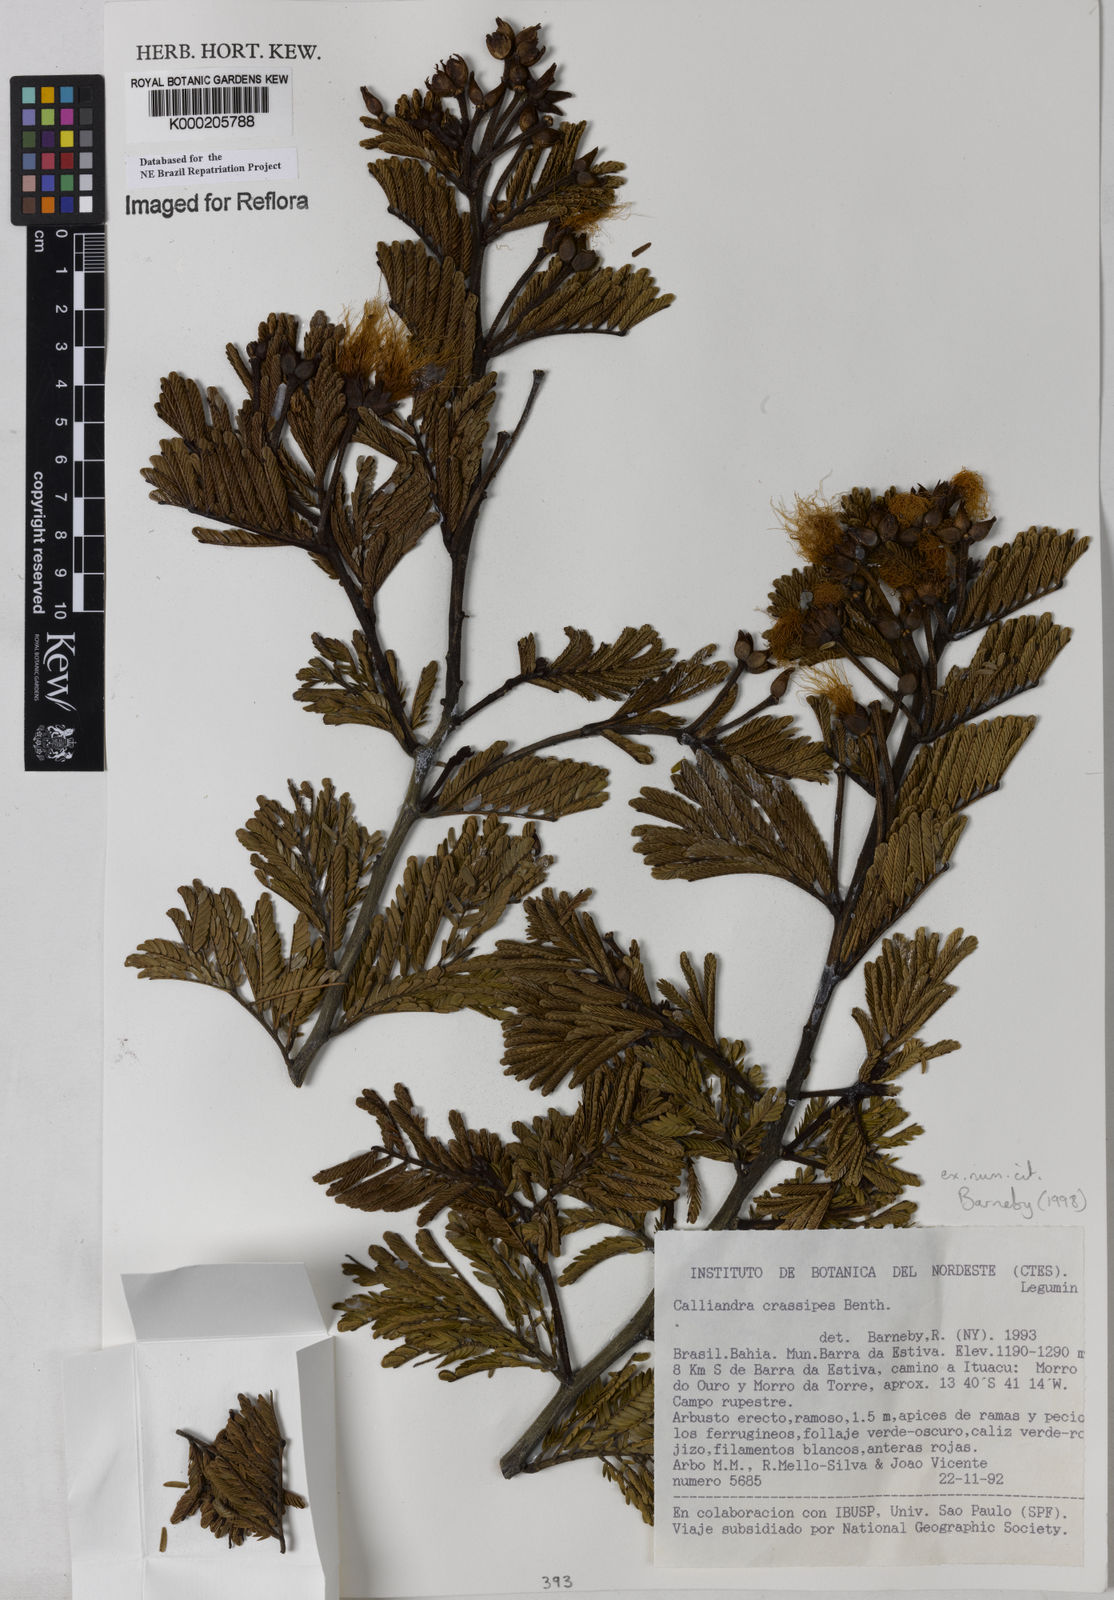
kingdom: Plantae
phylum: Tracheophyta
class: Magnoliopsida
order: Fabales
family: Fabaceae
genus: Calliandra
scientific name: Calliandra crassipes
